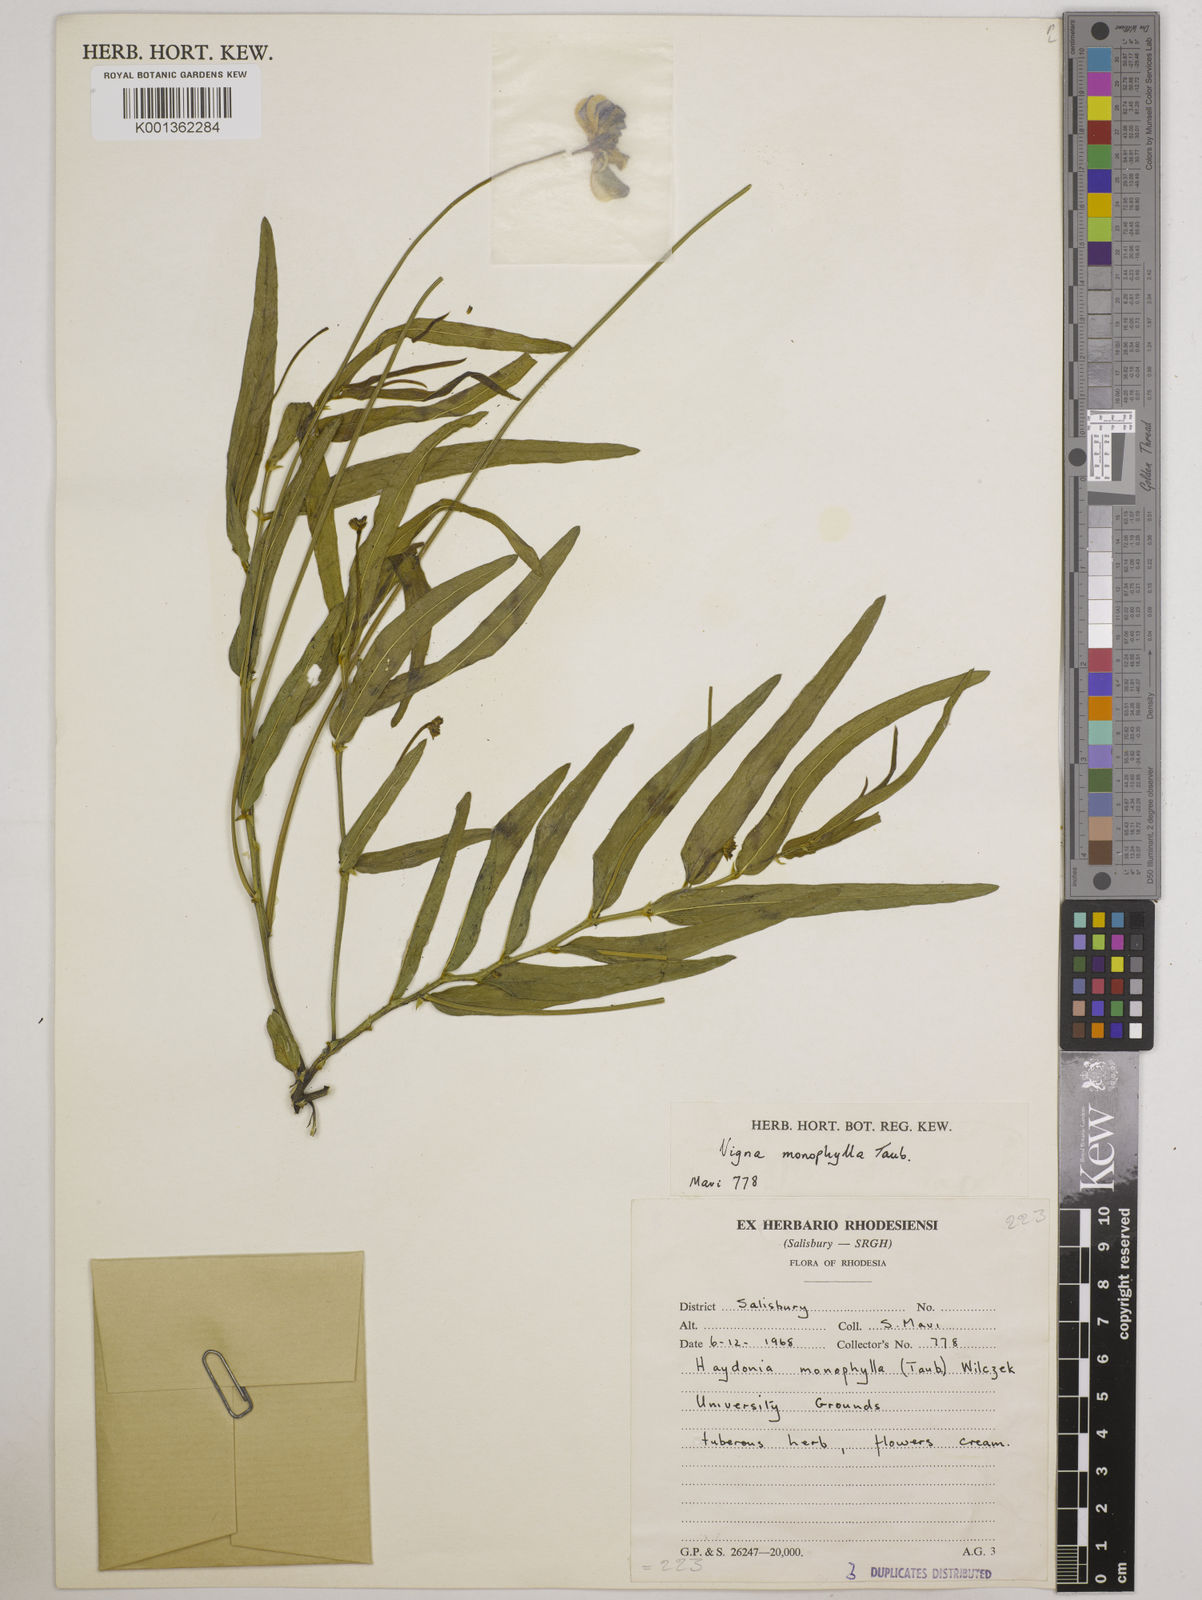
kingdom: Plantae
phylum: Tracheophyta
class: Magnoliopsida
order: Fabales
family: Fabaceae
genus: Vigna
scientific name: Vigna monophylla
